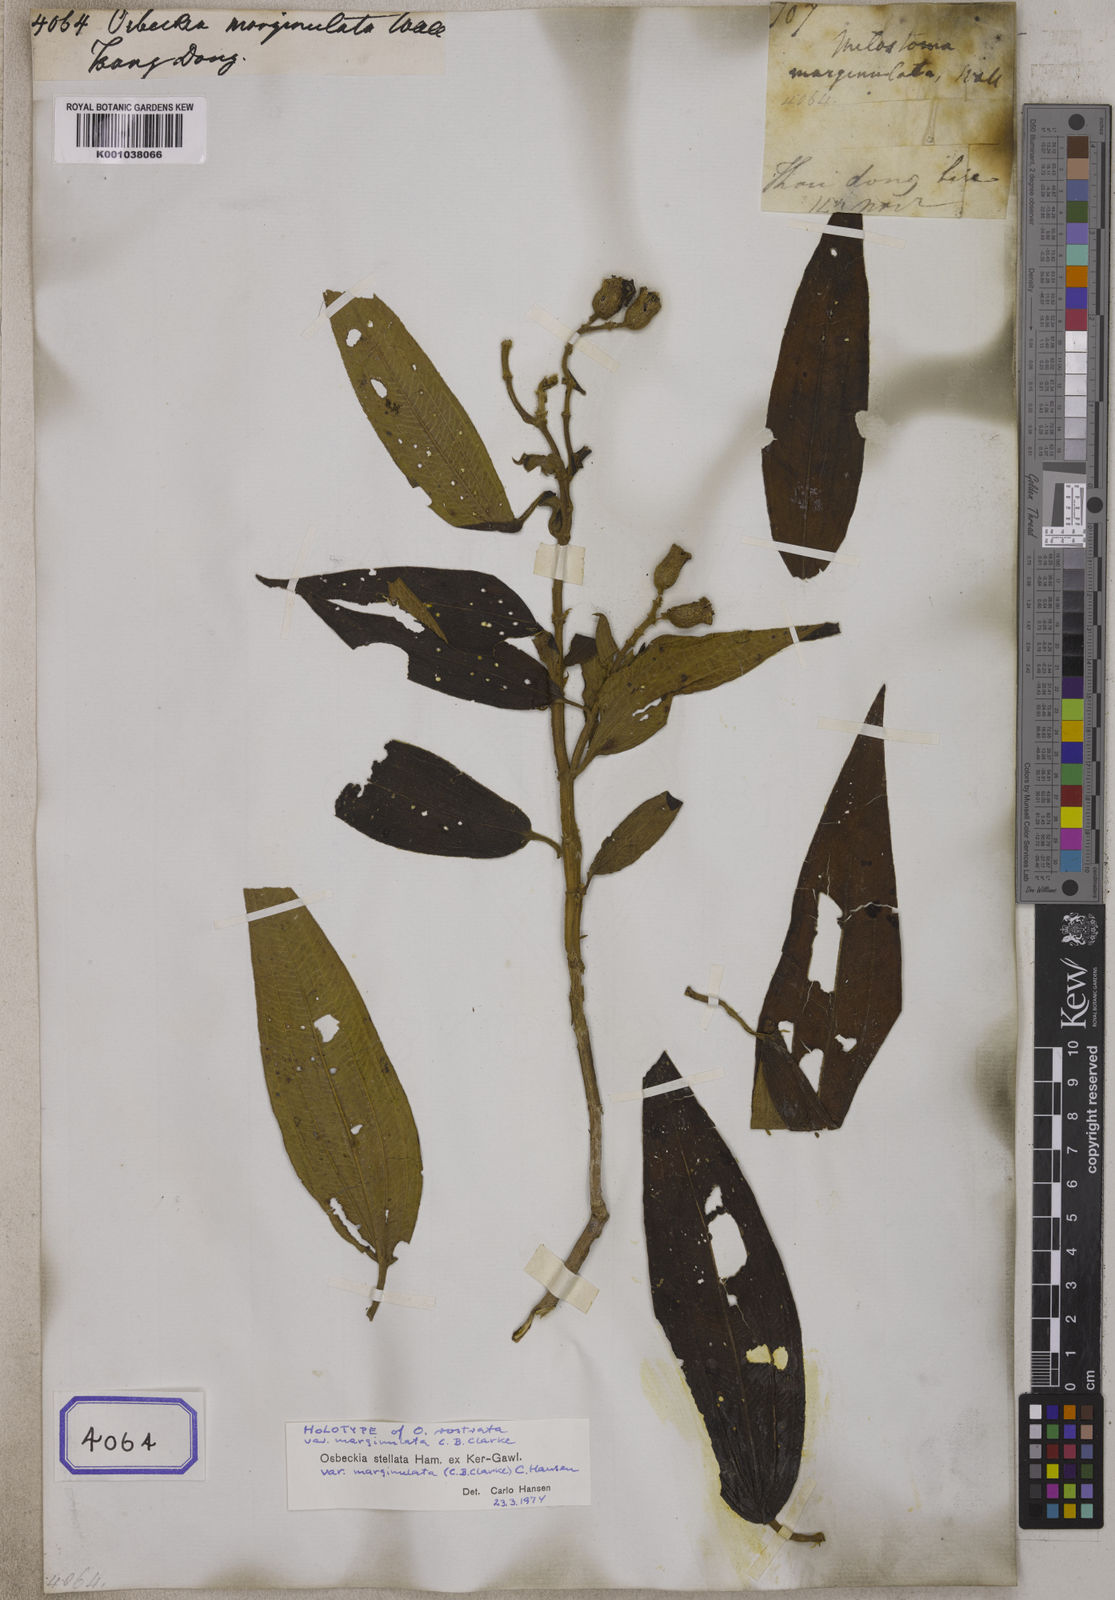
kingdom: Plantae
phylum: Tracheophyta
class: Magnoliopsida
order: Myrtales
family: Melastomataceae
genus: Osbeckia
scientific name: Osbeckia stellata
